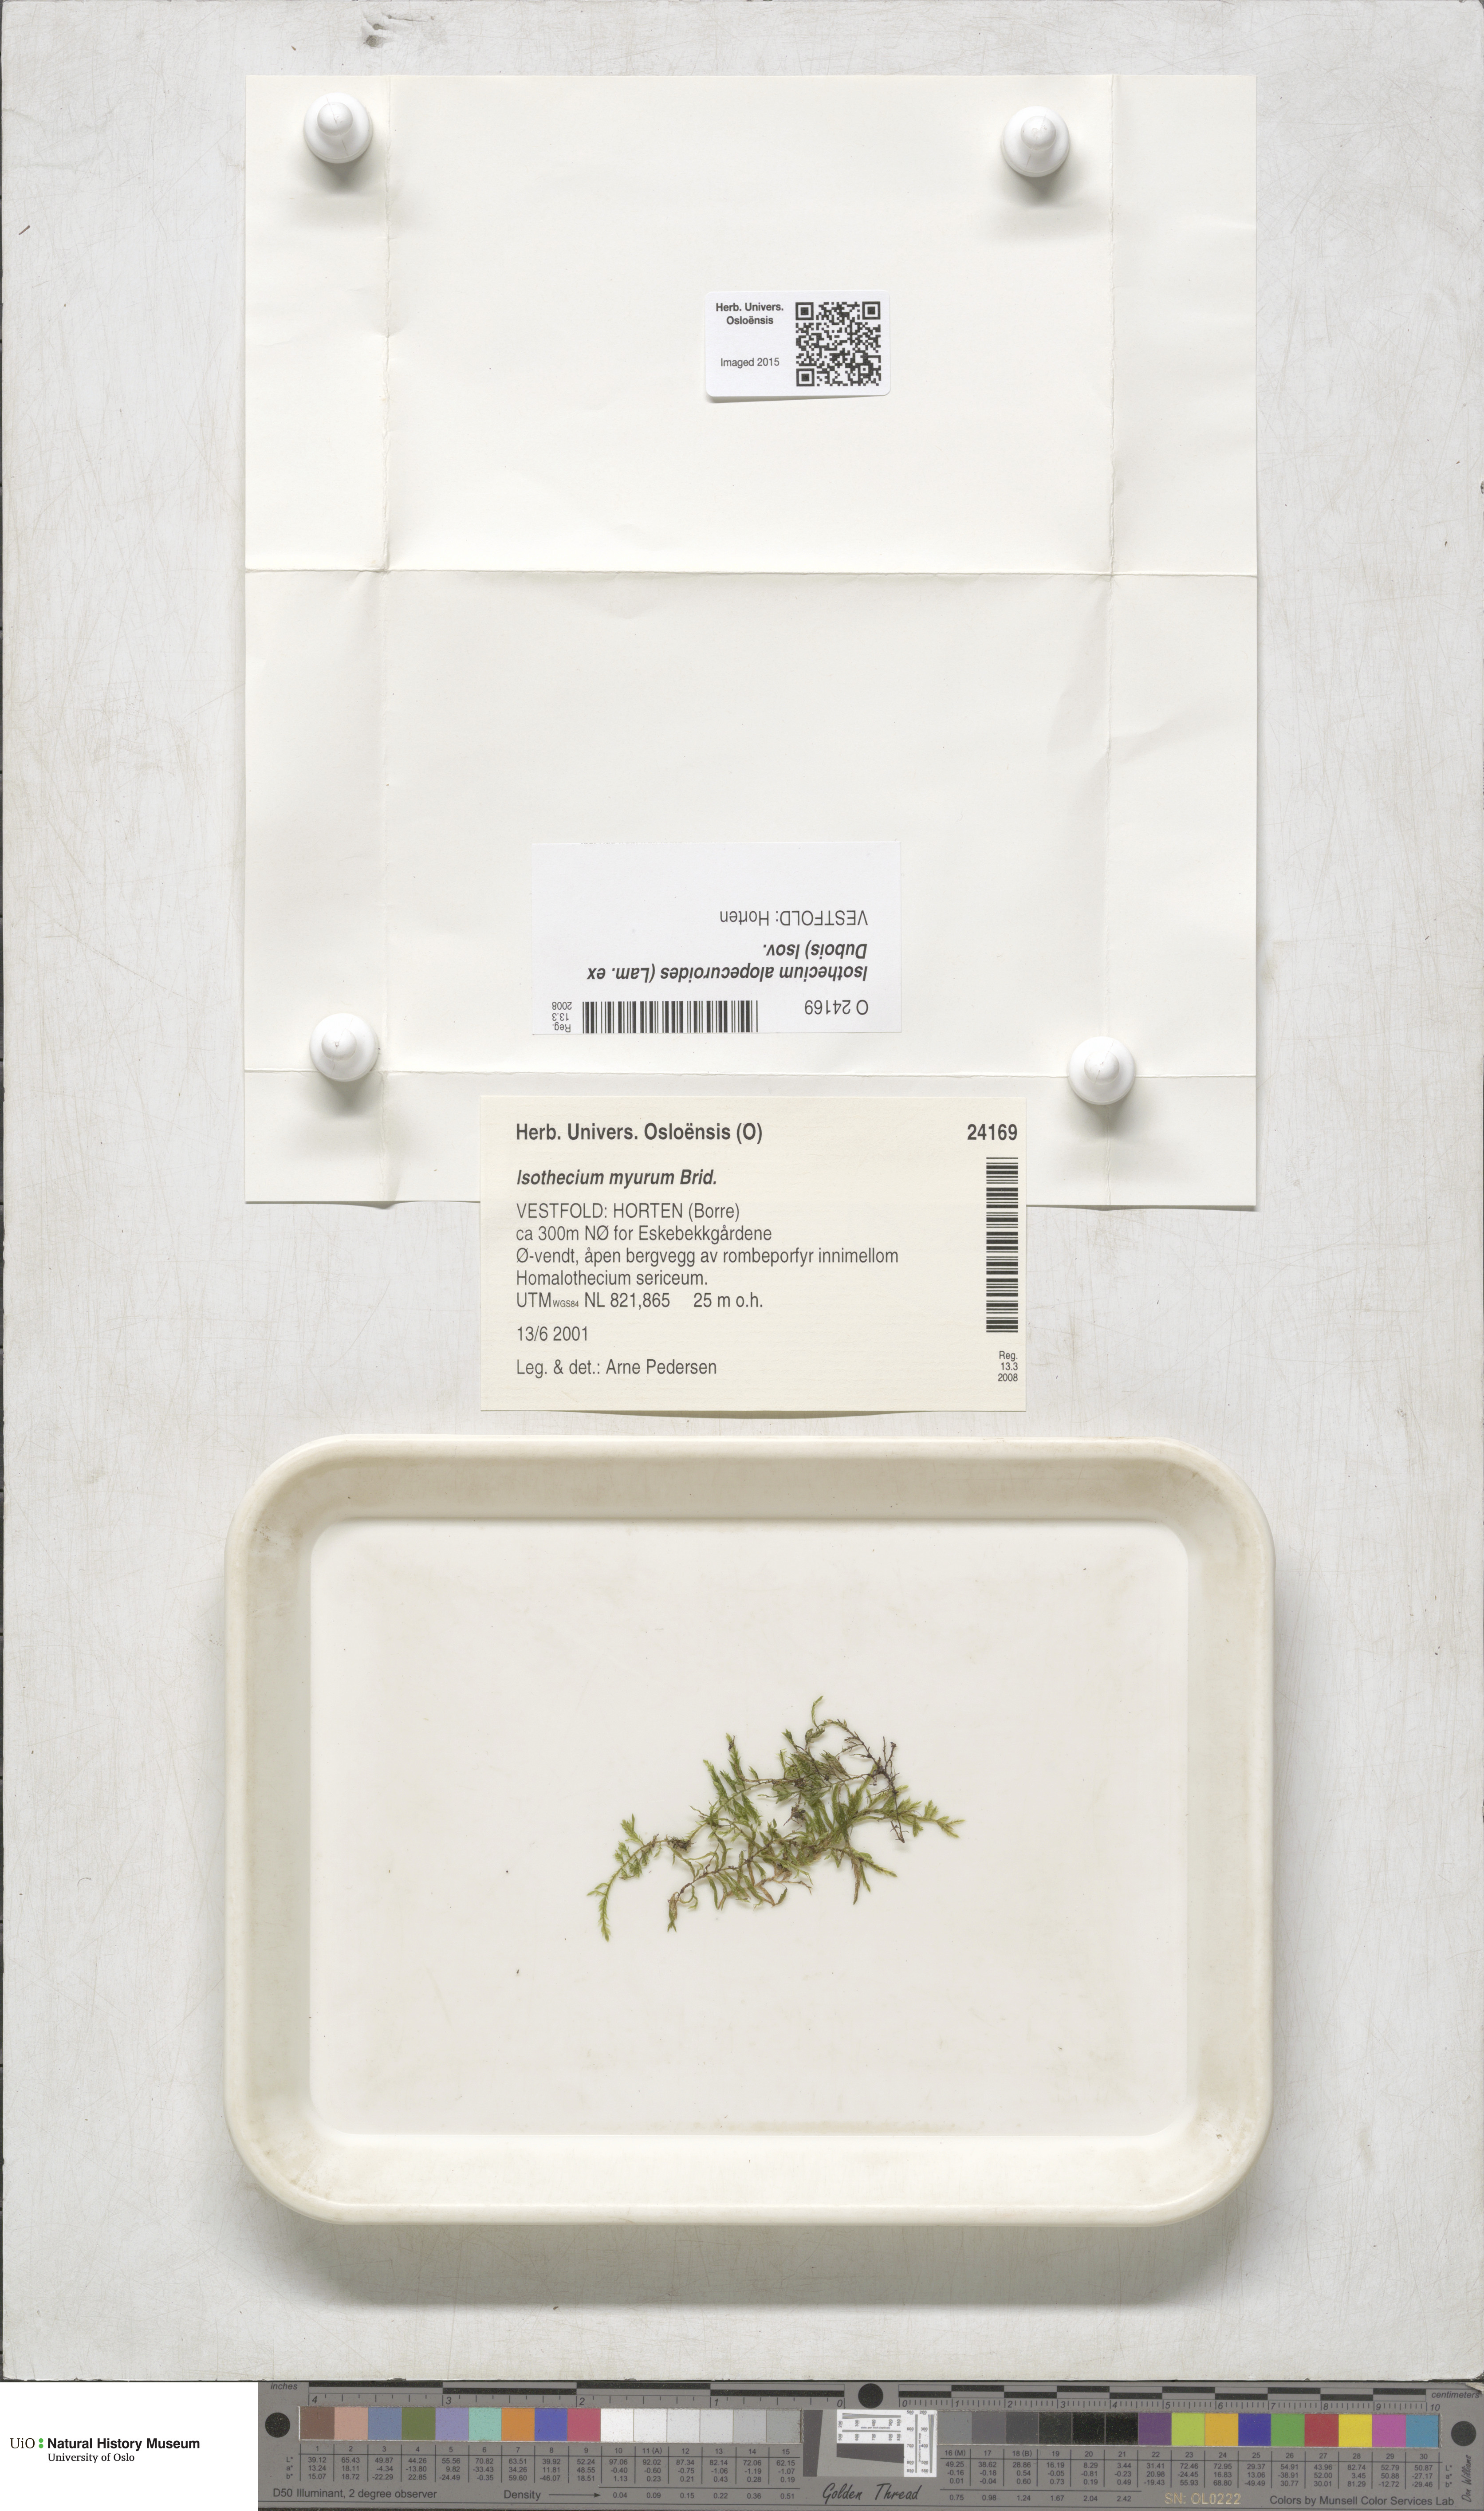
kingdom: Plantae
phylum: Bryophyta
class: Bryopsida
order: Hypnales
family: Lembophyllaceae
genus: Isothecium
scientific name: Isothecium alopecuroides
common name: Larger mouse-tail moss
